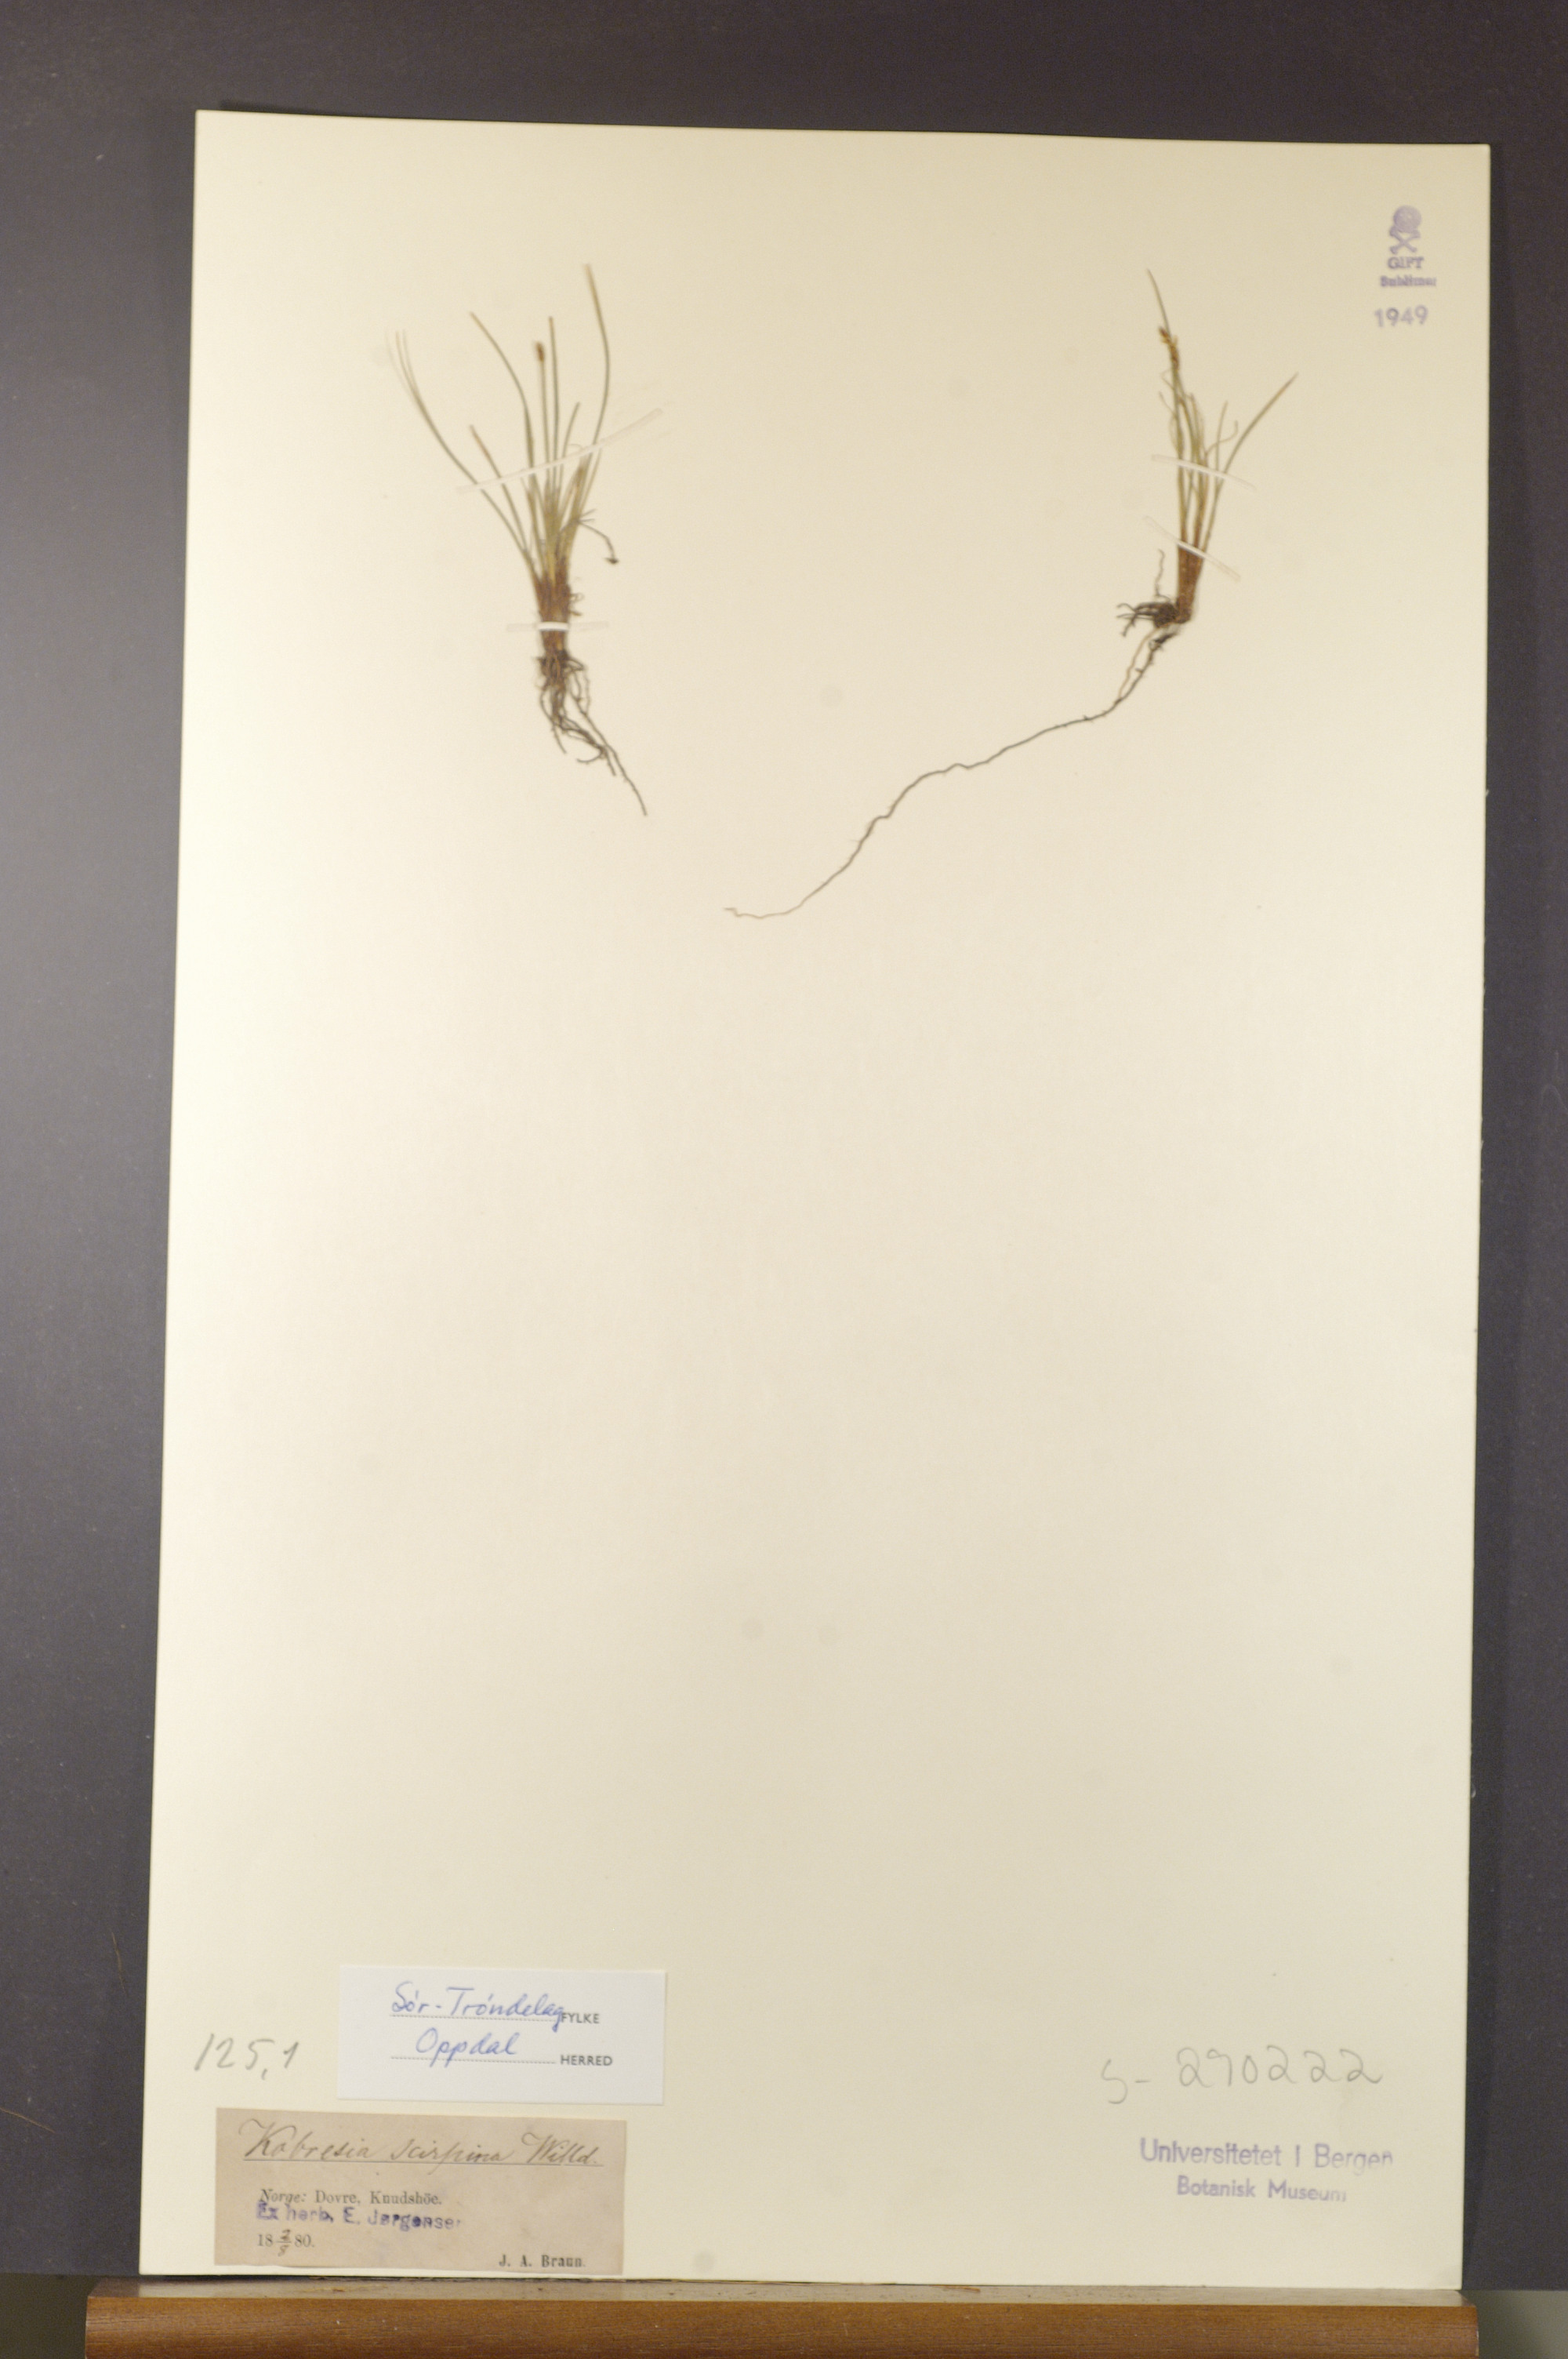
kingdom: Plantae
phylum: Tracheophyta
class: Liliopsida
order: Poales
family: Cyperaceae
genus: Carex
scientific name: Carex myosuroides
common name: Bellard's bog sedge
